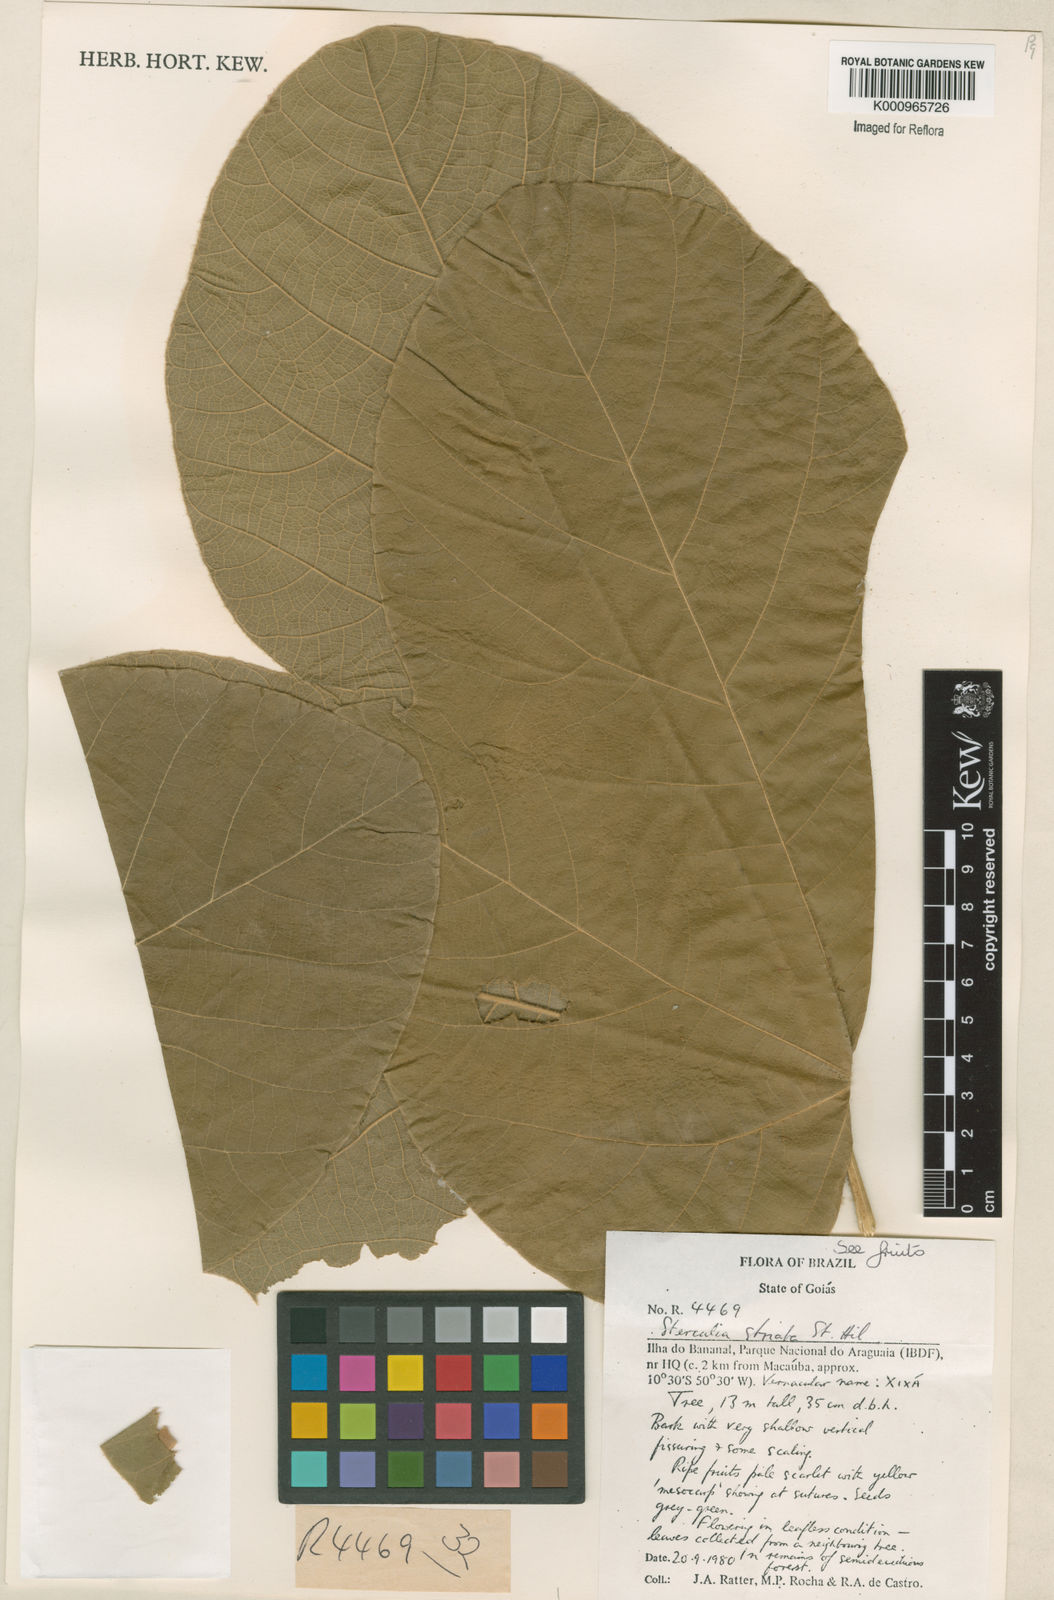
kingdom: Plantae
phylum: Tracheophyta
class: Magnoliopsida
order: Malvales
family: Malvaceae
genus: Sterculia
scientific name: Sterculia striata
